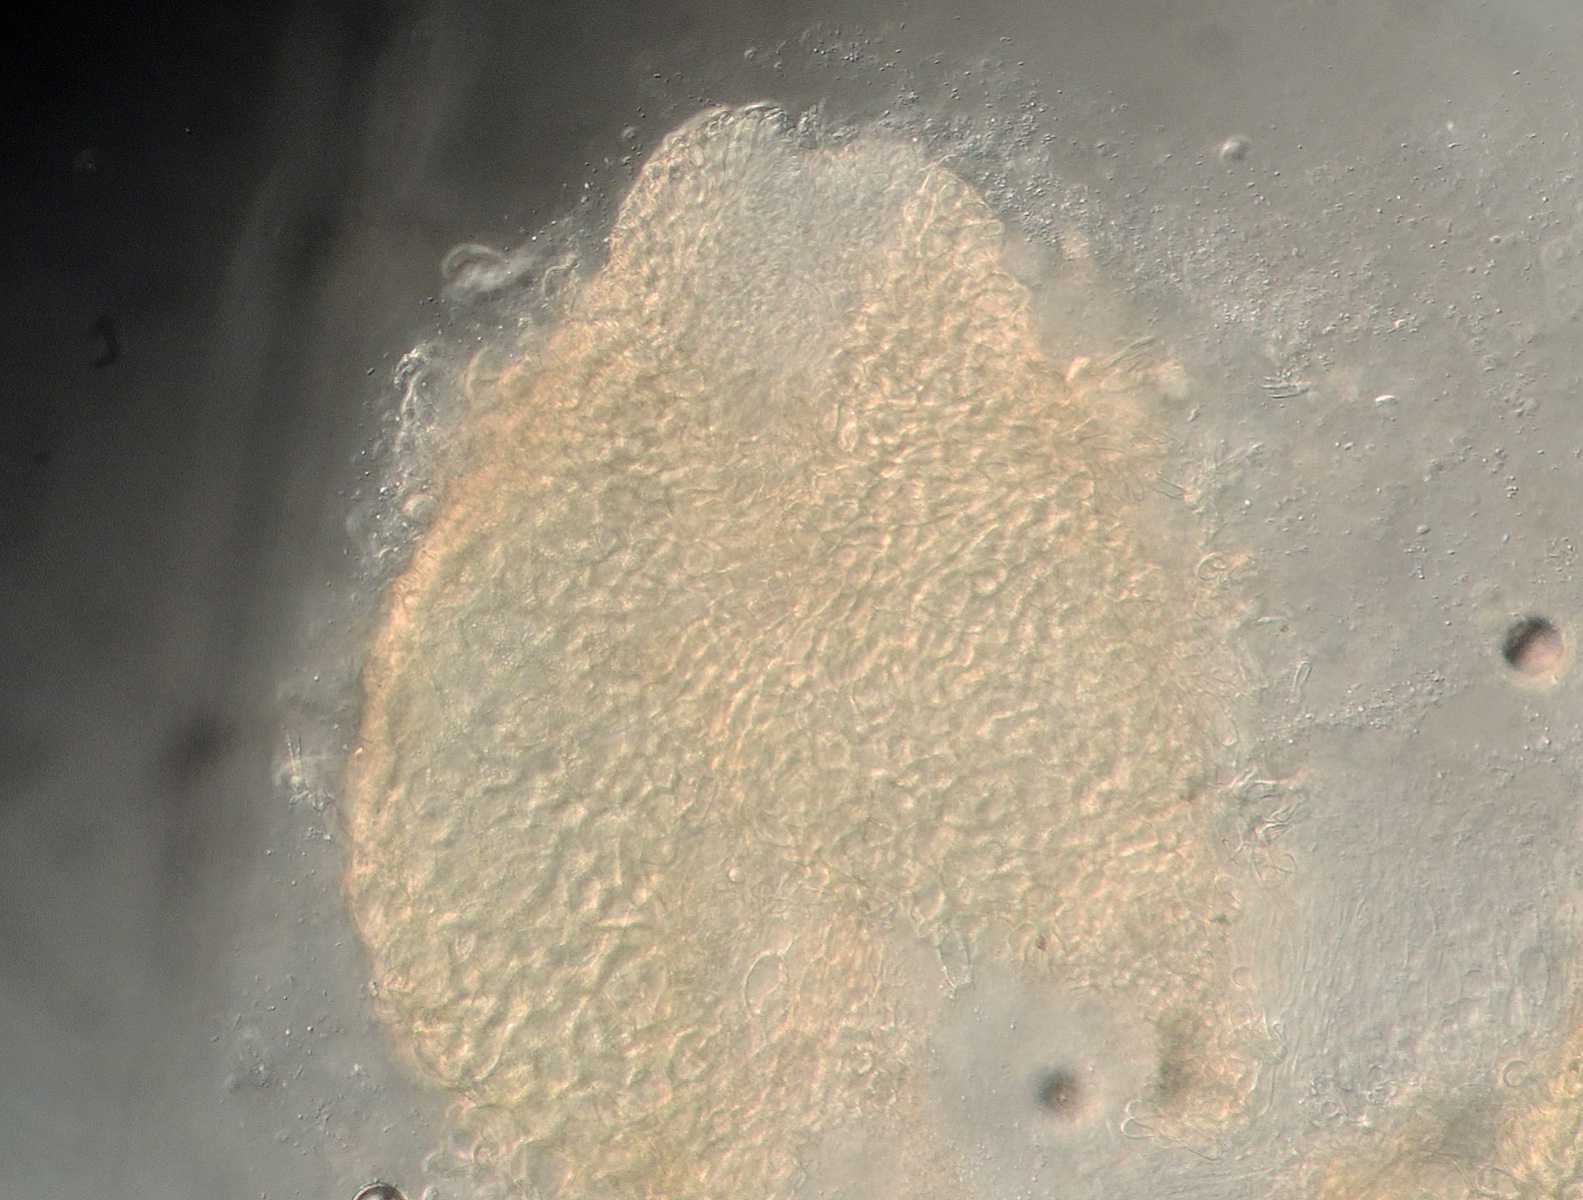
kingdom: Fungi
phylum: Ascomycota
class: Sordariomycetes
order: Hypocreales
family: Hypocreaceae
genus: Hypomyces
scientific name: Hypomyces
